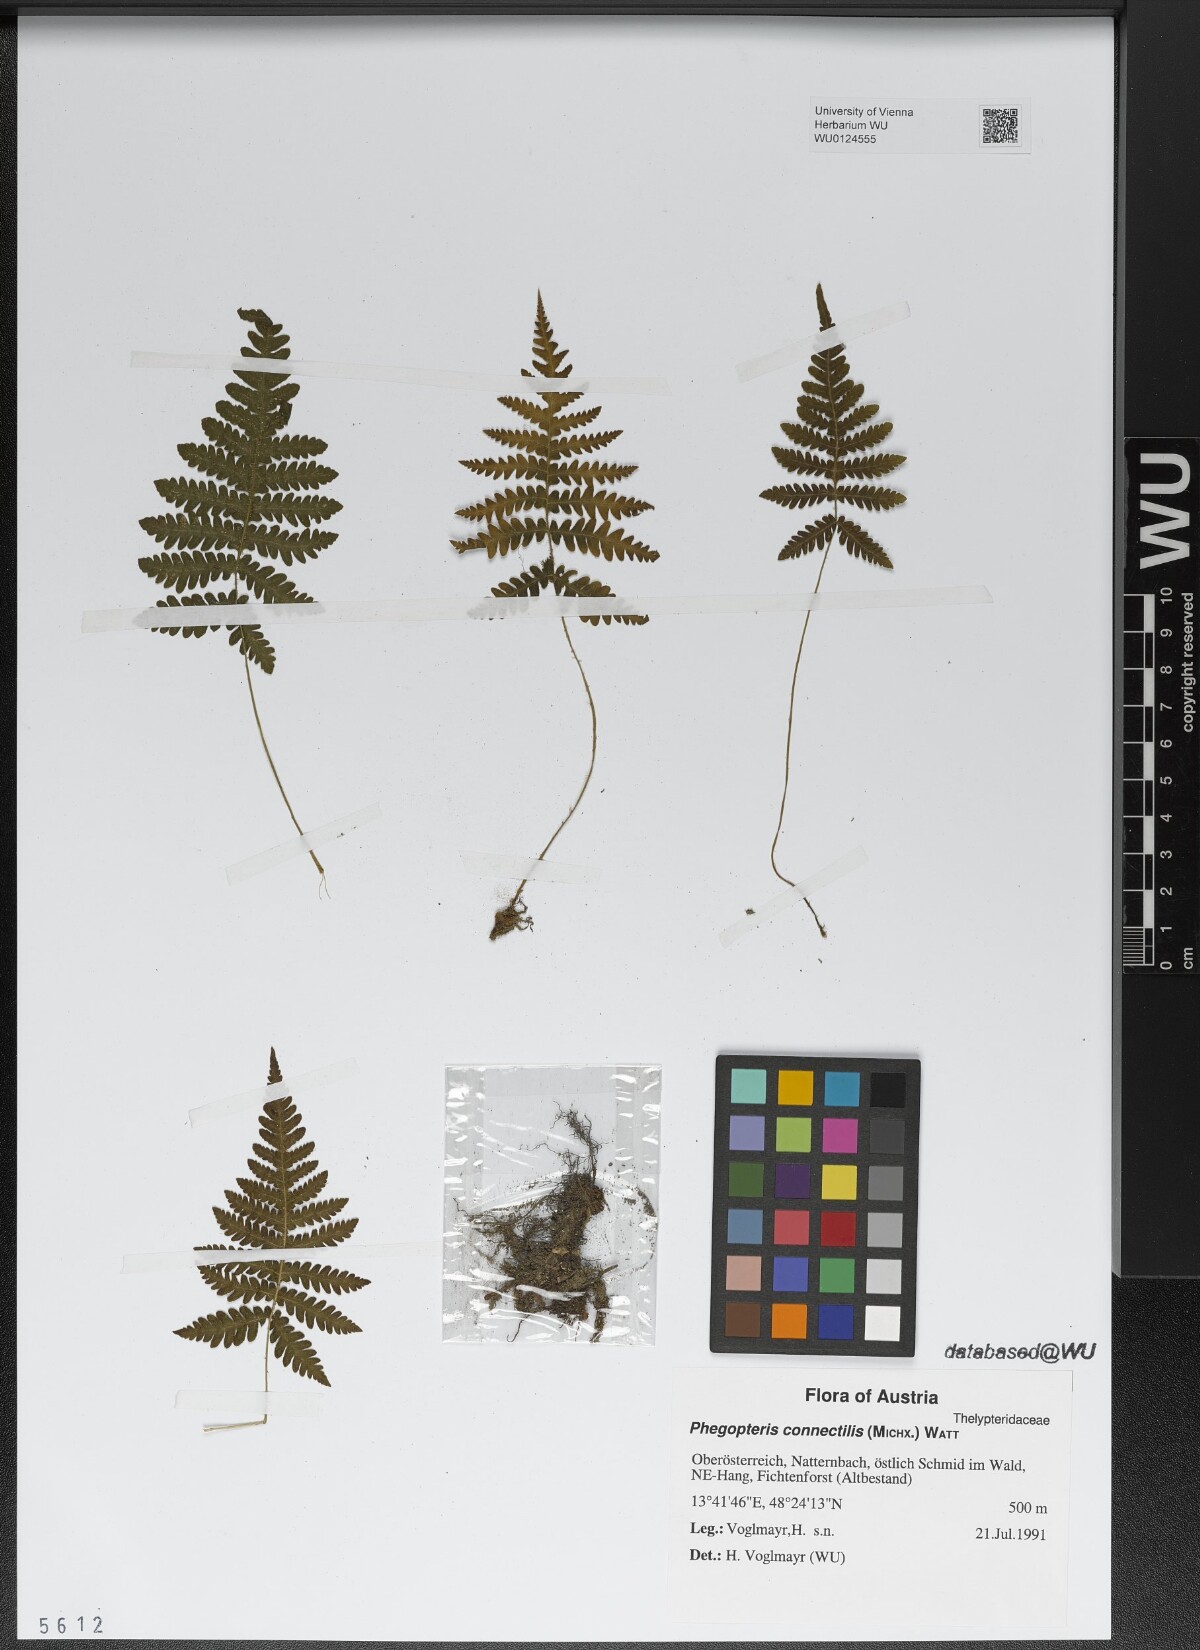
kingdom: Plantae
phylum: Tracheophyta
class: Polypodiopsida
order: Polypodiales
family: Thelypteridaceae
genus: Phegopteris
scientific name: Phegopteris connectilis
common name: Beech fern
